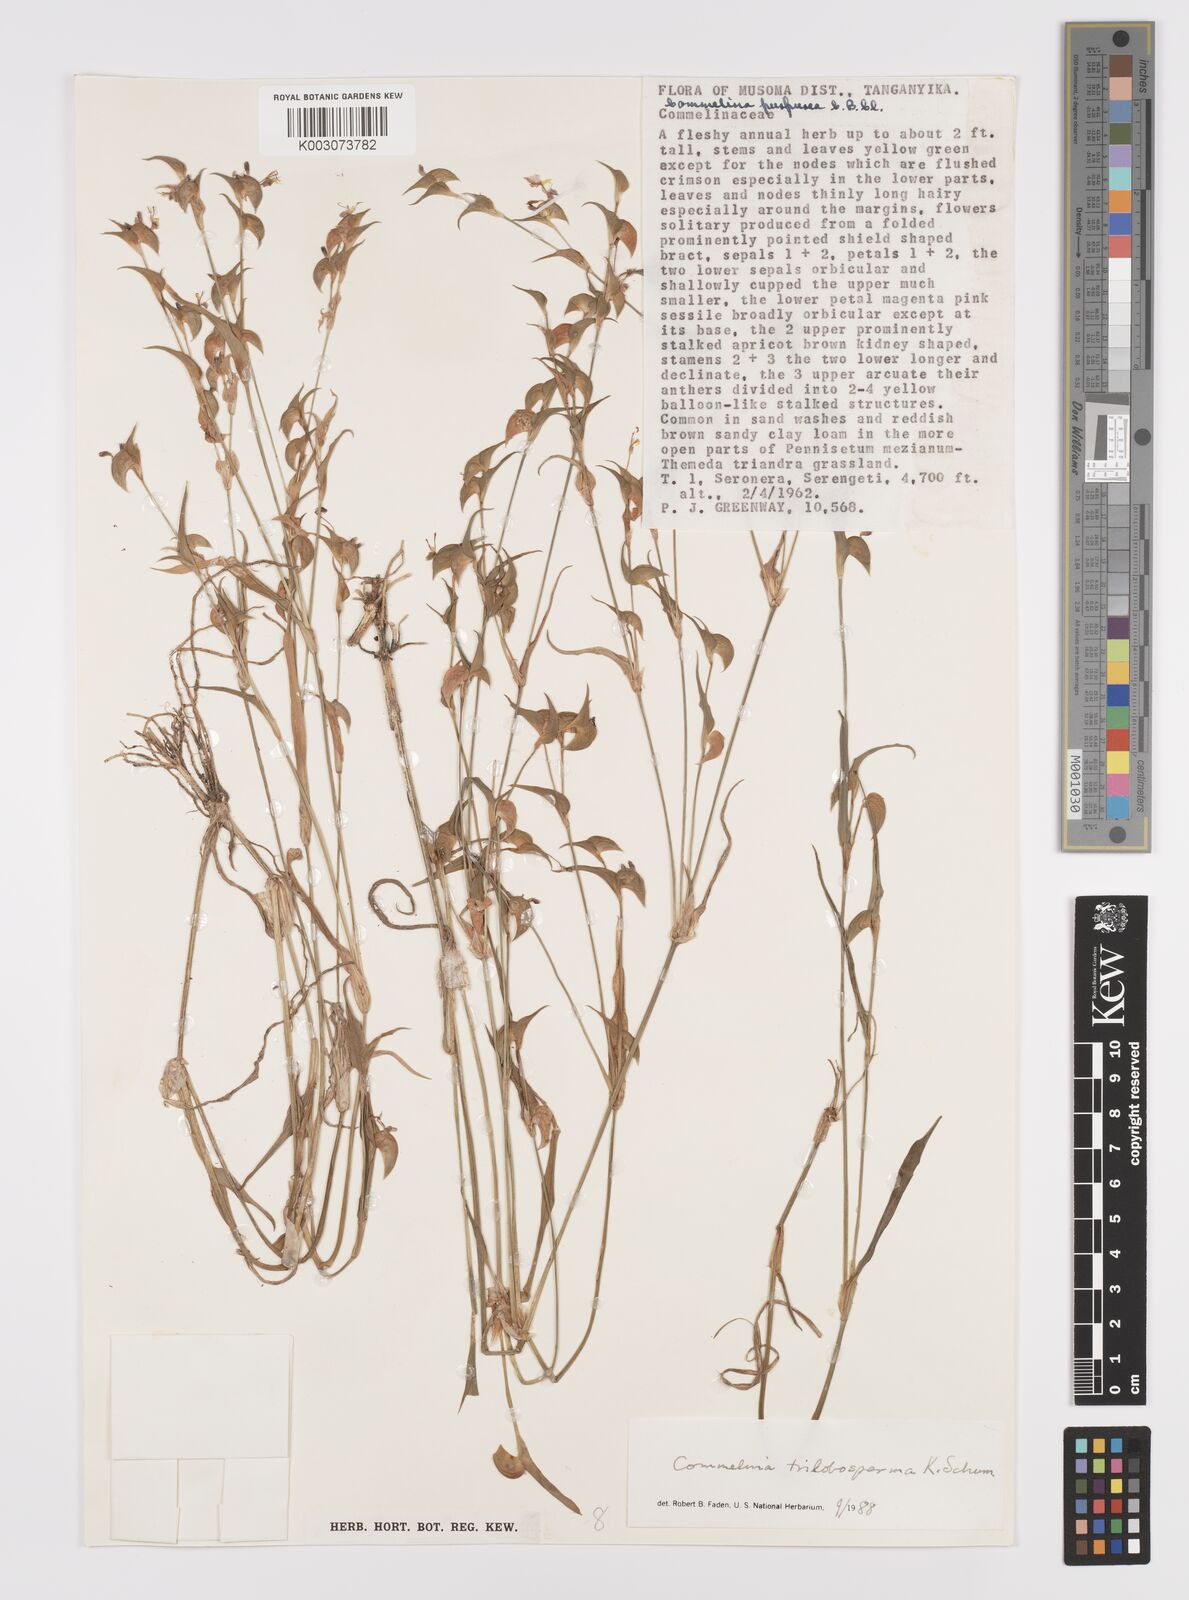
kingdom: Plantae
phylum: Tracheophyta
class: Liliopsida
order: Commelinales
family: Commelinaceae
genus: Commelina
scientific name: Commelina trilobosperma
